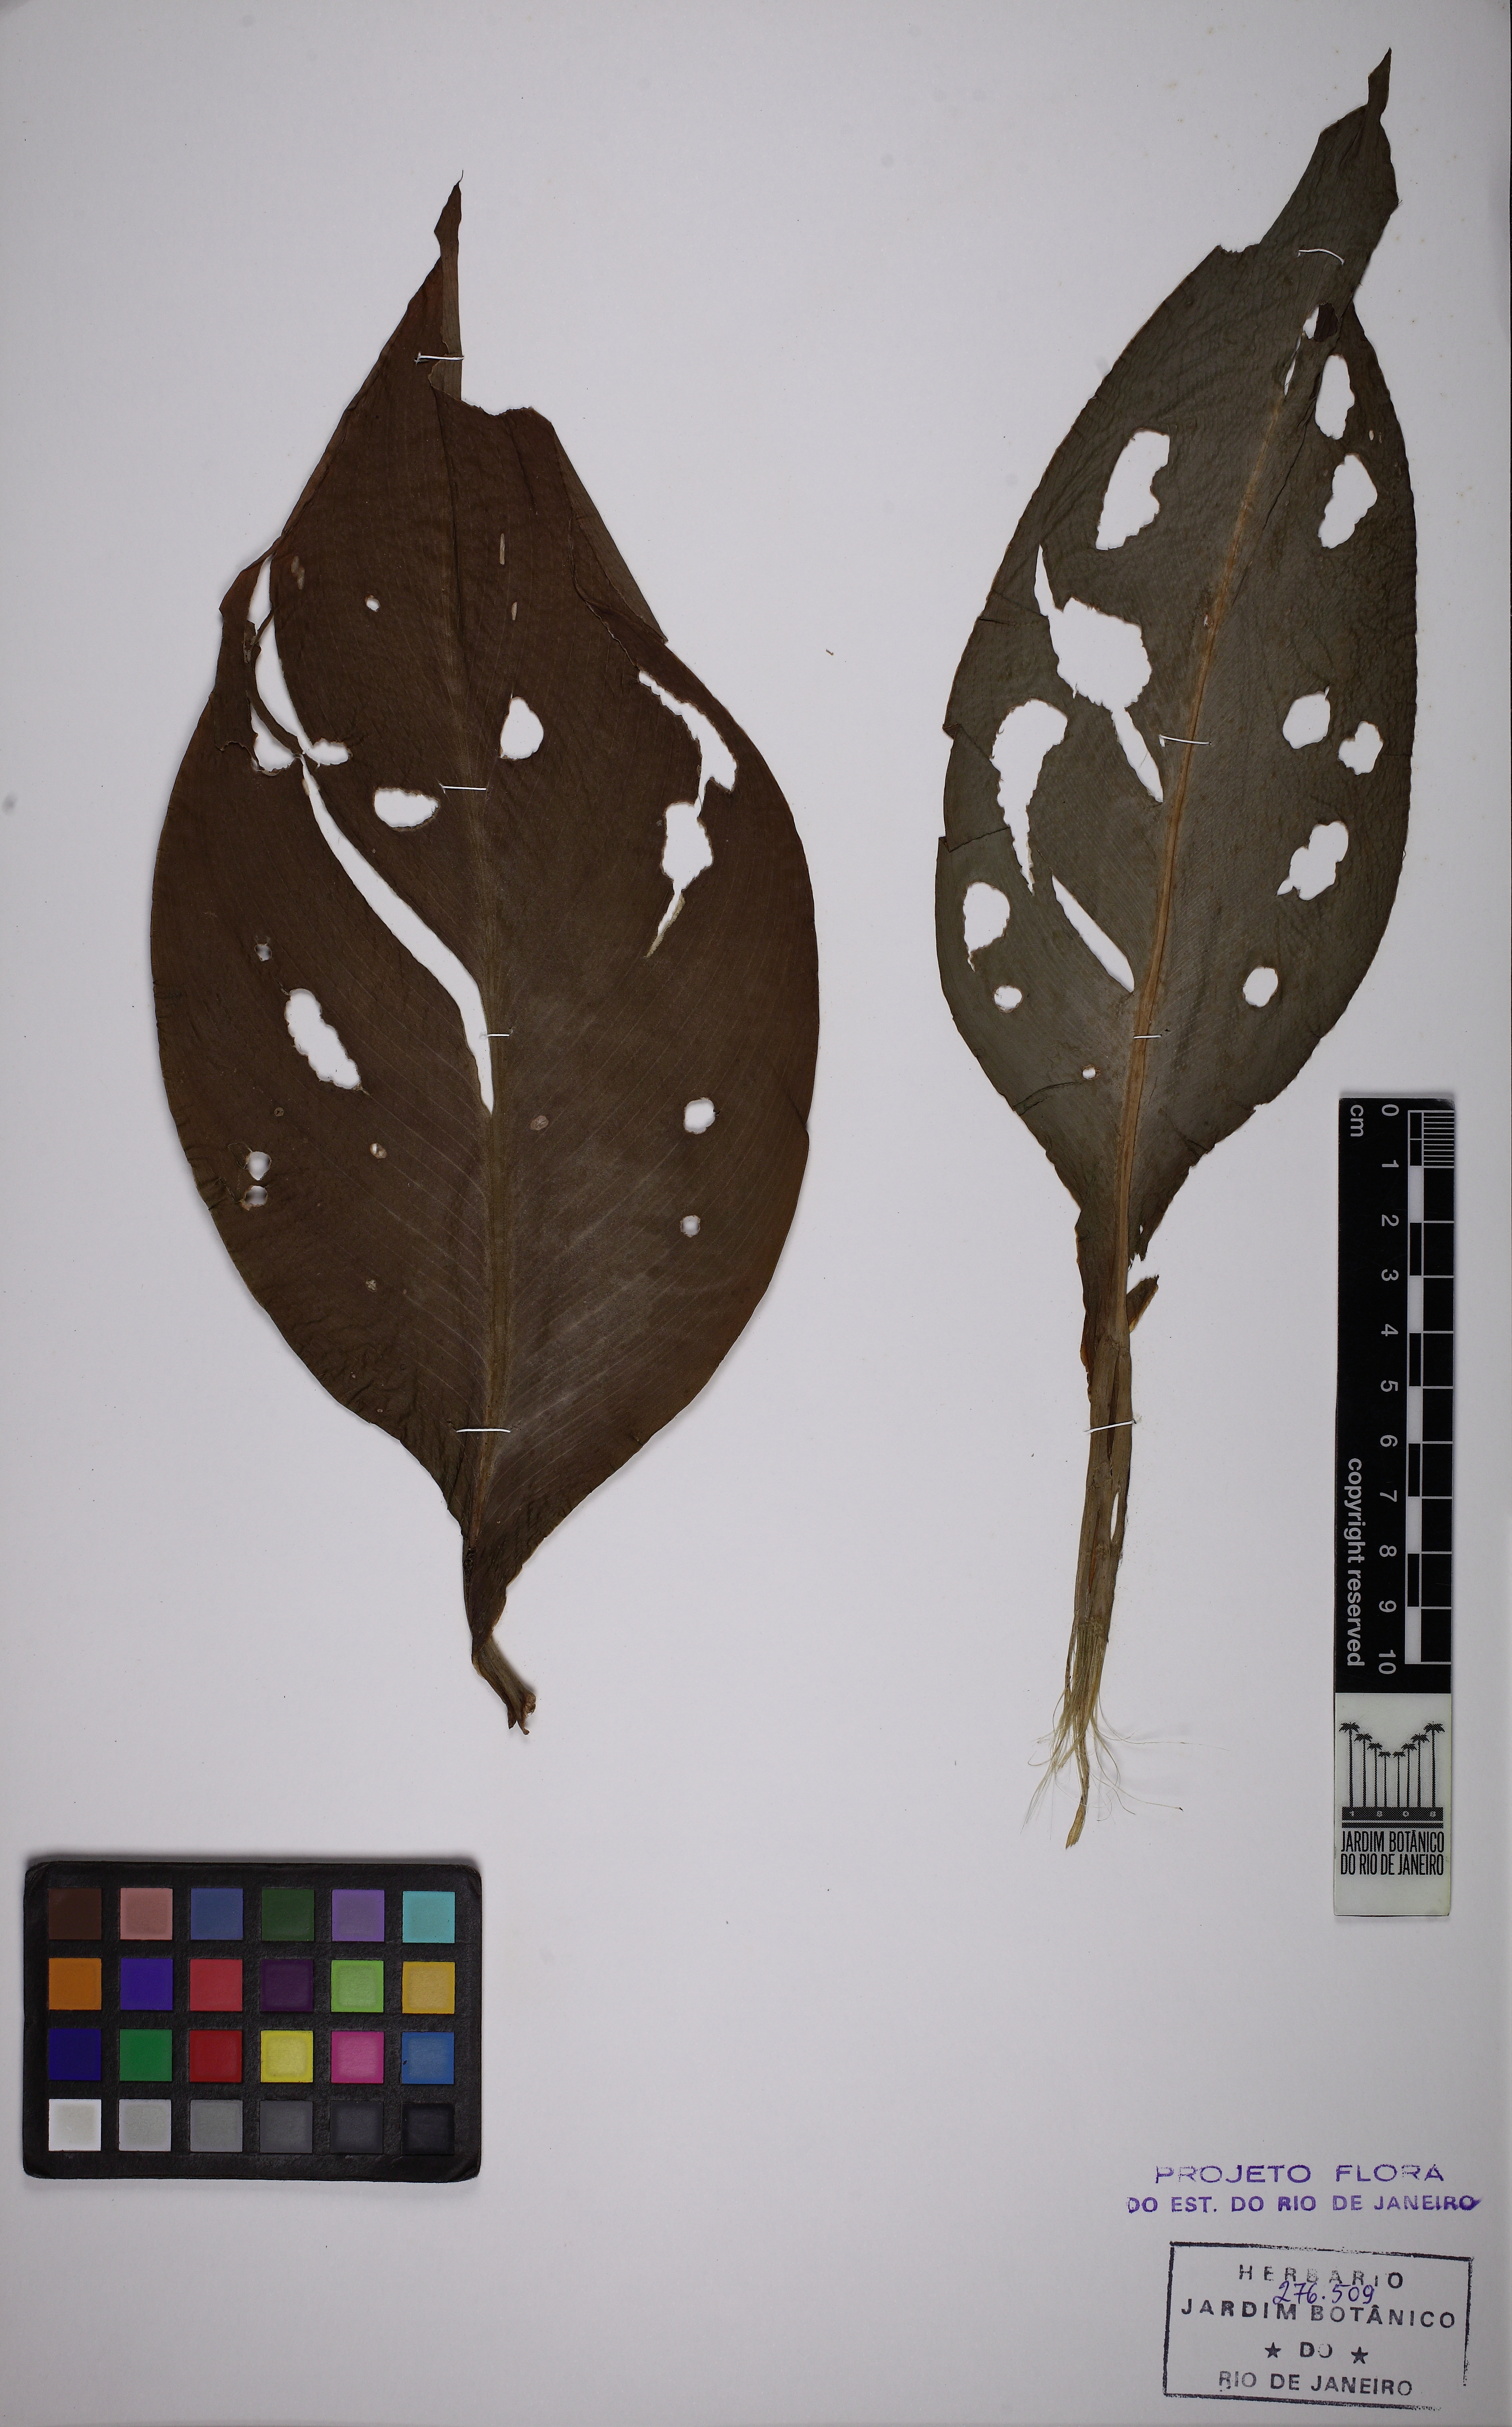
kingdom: Plantae
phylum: Tracheophyta
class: Liliopsida
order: Zingiberales
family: Cannaceae
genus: Canna
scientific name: Canna indica
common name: Indian shot
